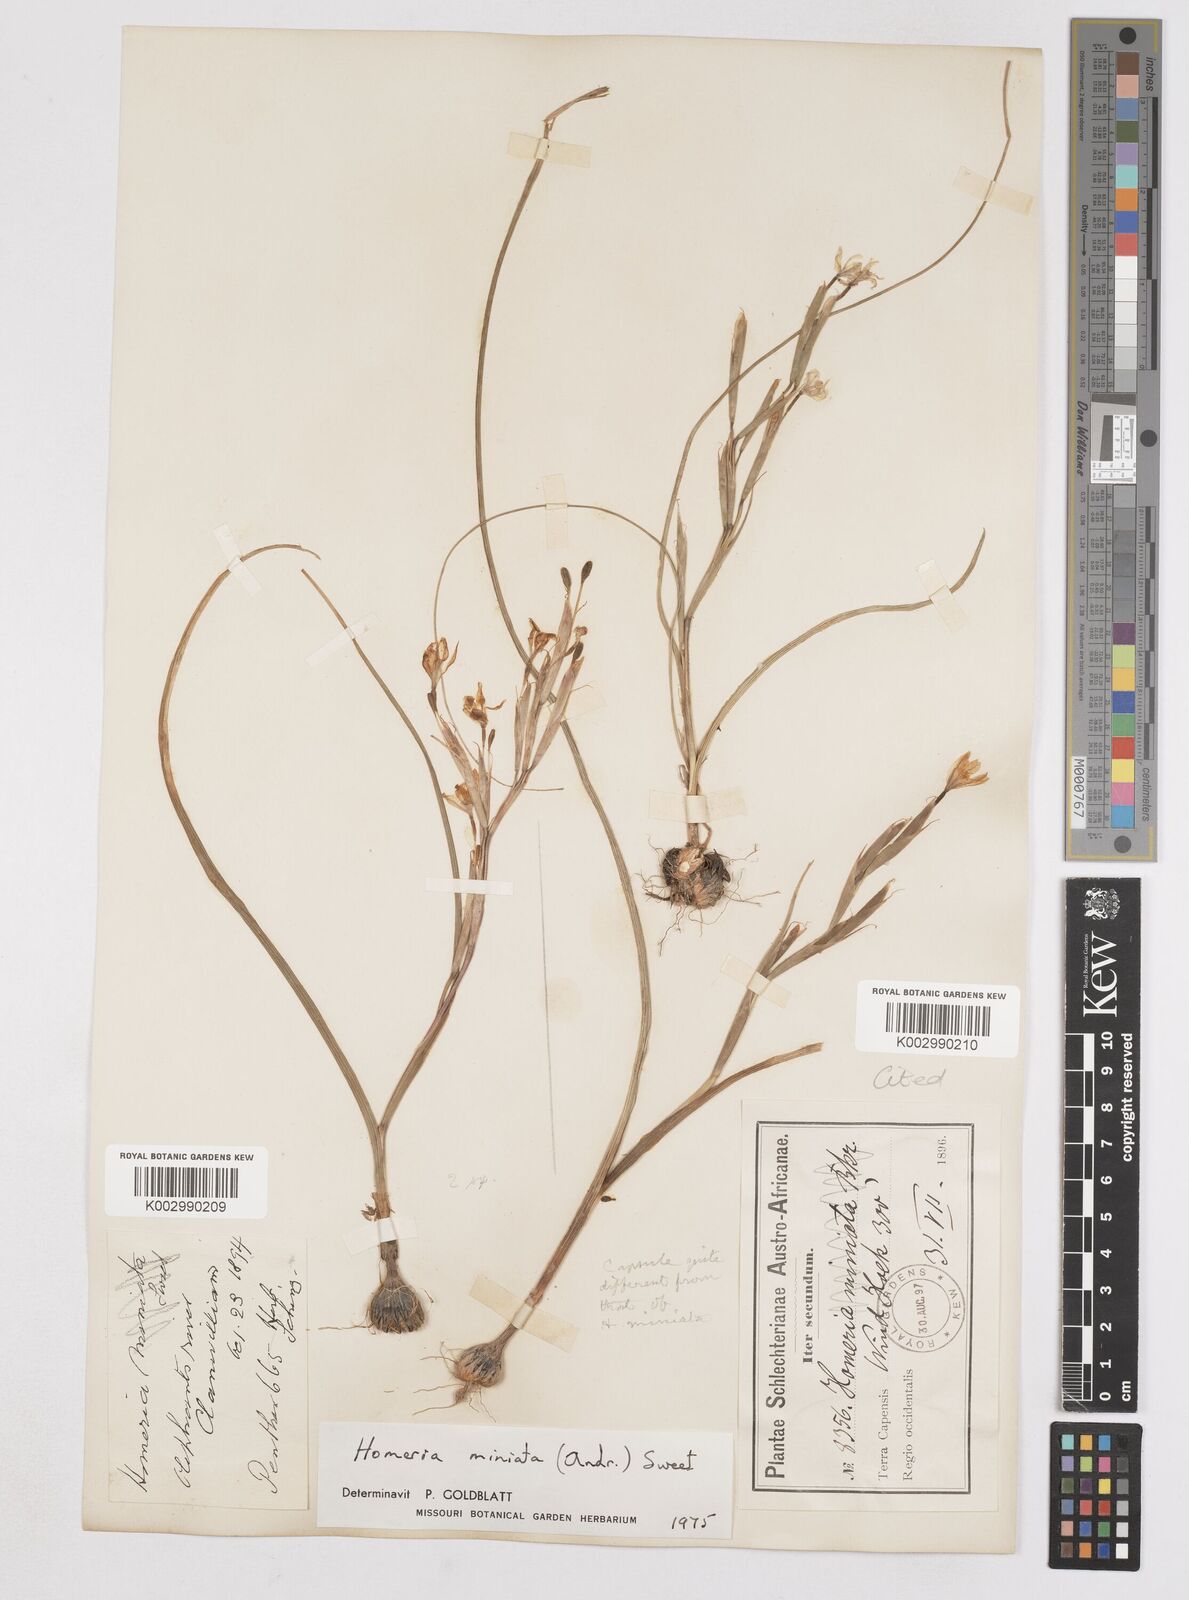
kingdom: Plantae
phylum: Tracheophyta
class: Liliopsida
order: Asparagales
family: Iridaceae
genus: Moraea
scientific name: Moraea miniata
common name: Two-leaf cape-tulip
